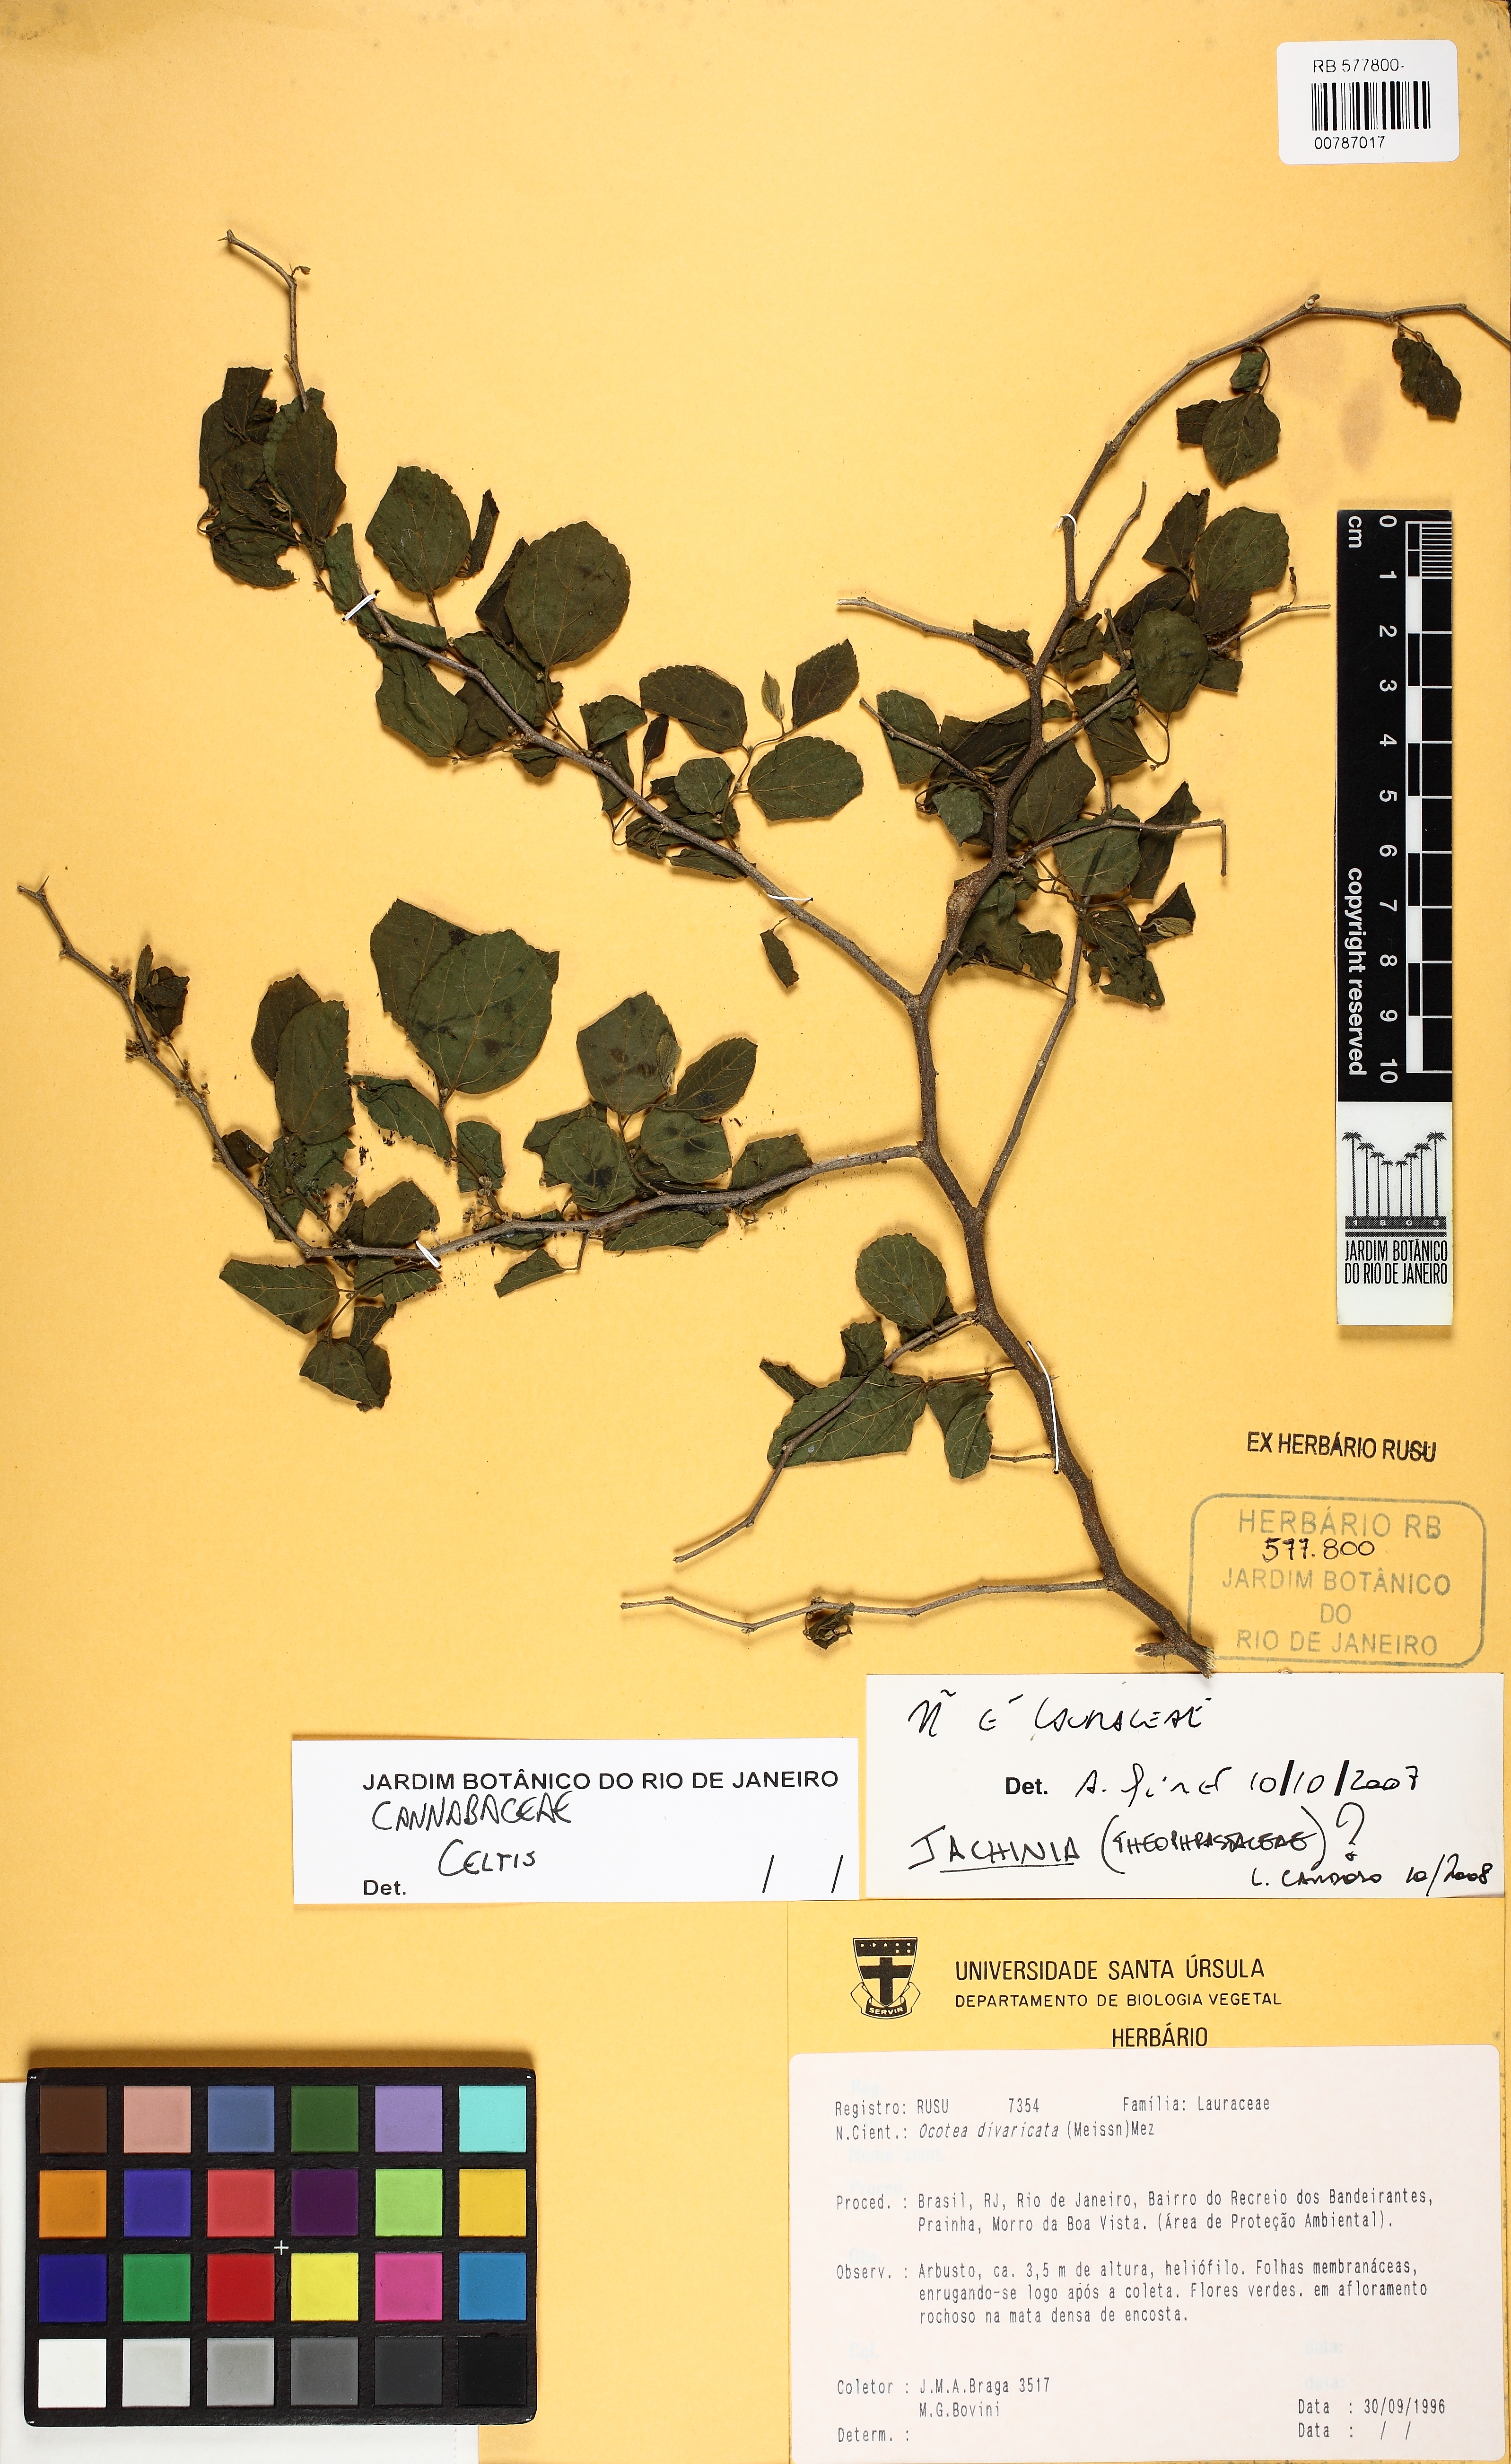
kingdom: Plantae
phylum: Tracheophyta
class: Magnoliopsida
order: Rosales
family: Cannabaceae
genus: Celtis
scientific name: Celtis
